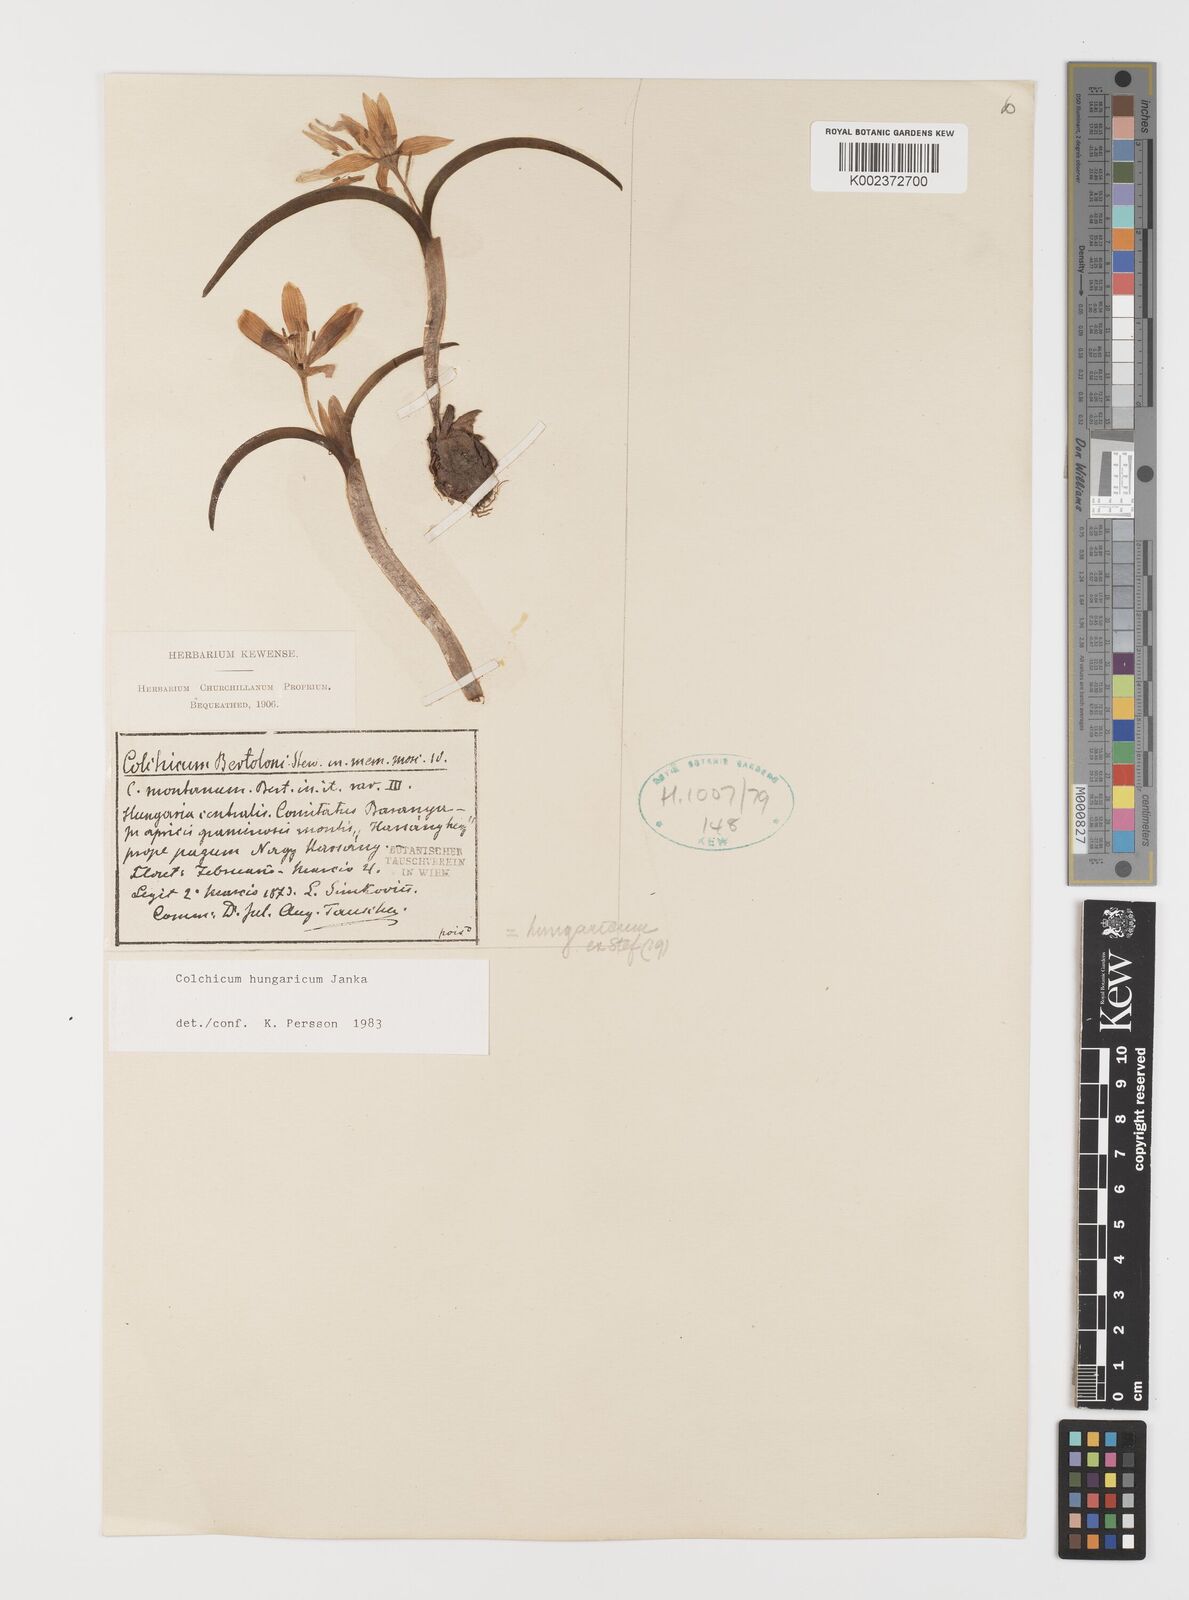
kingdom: Plantae
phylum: Tracheophyta
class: Liliopsida
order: Liliales
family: Colchicaceae
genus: Colchicum
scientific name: Colchicum hungaricum
